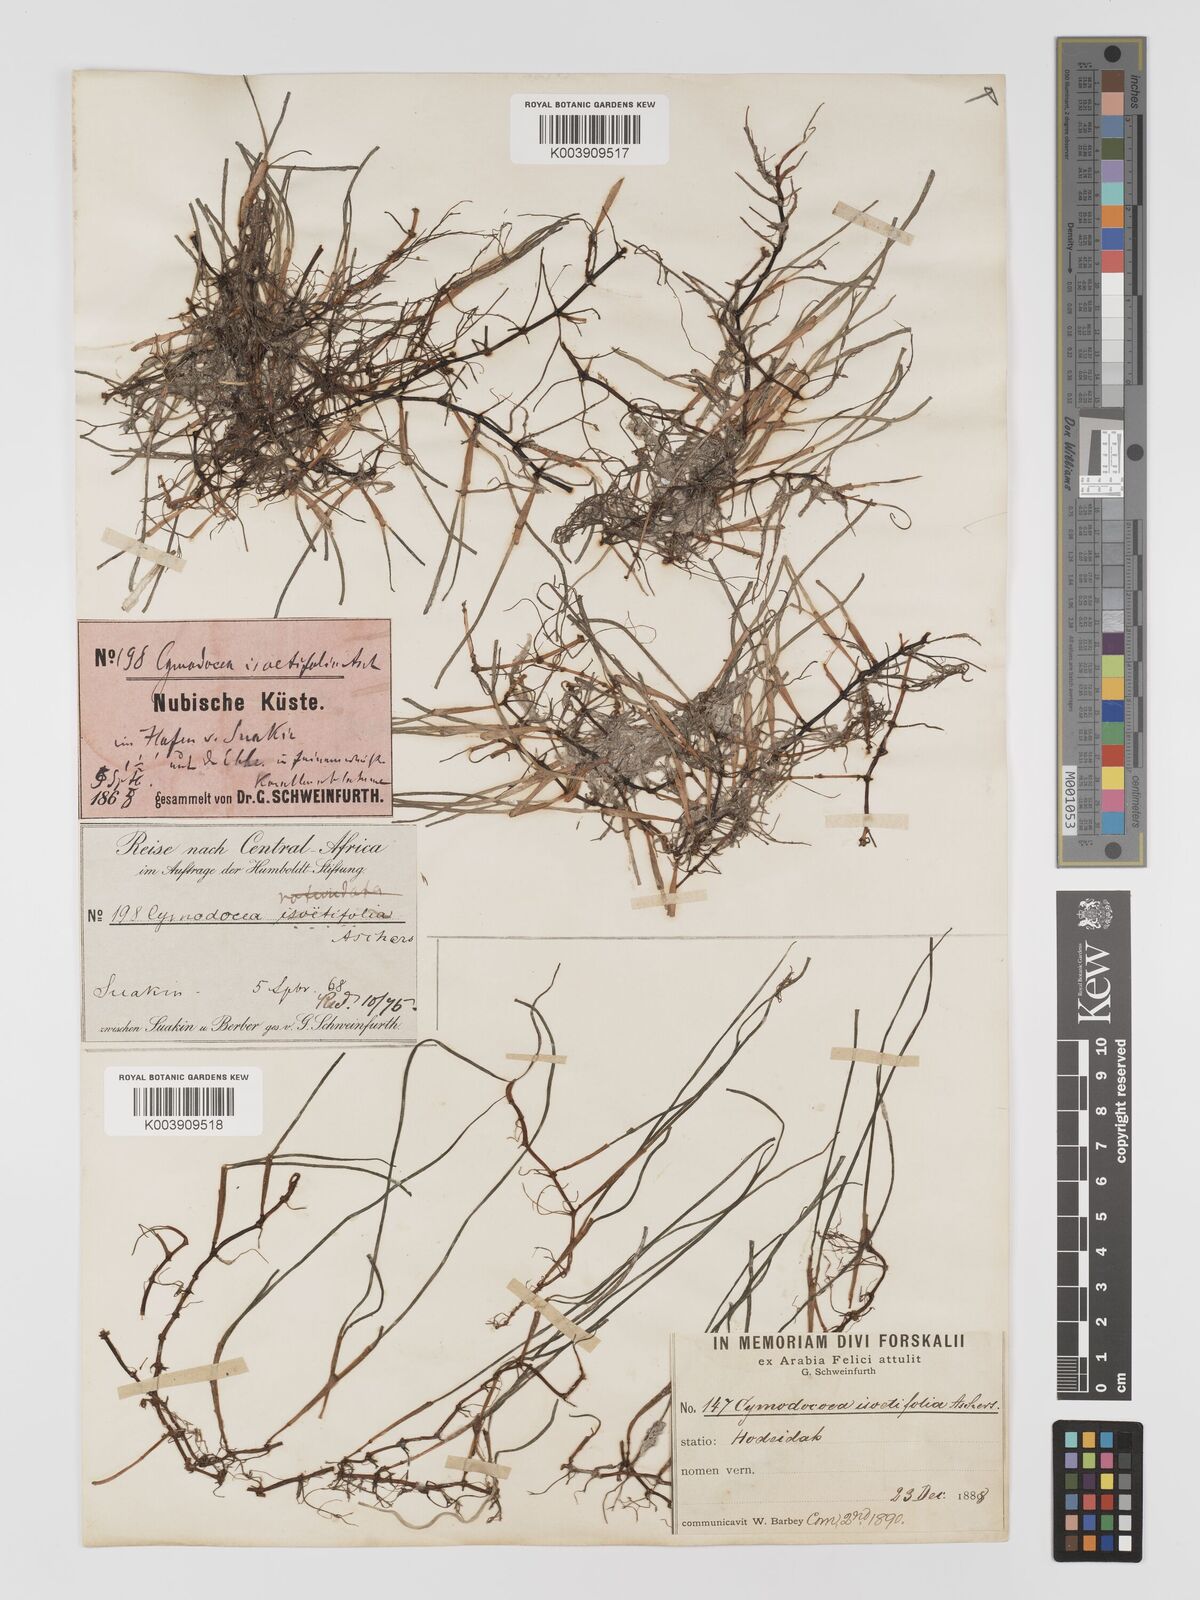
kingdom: Plantae
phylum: Tracheophyta
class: Liliopsida
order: Alismatales
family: Cymodoceaceae
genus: Syringodium
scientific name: Syringodium isoetifolium
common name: Species code: si
